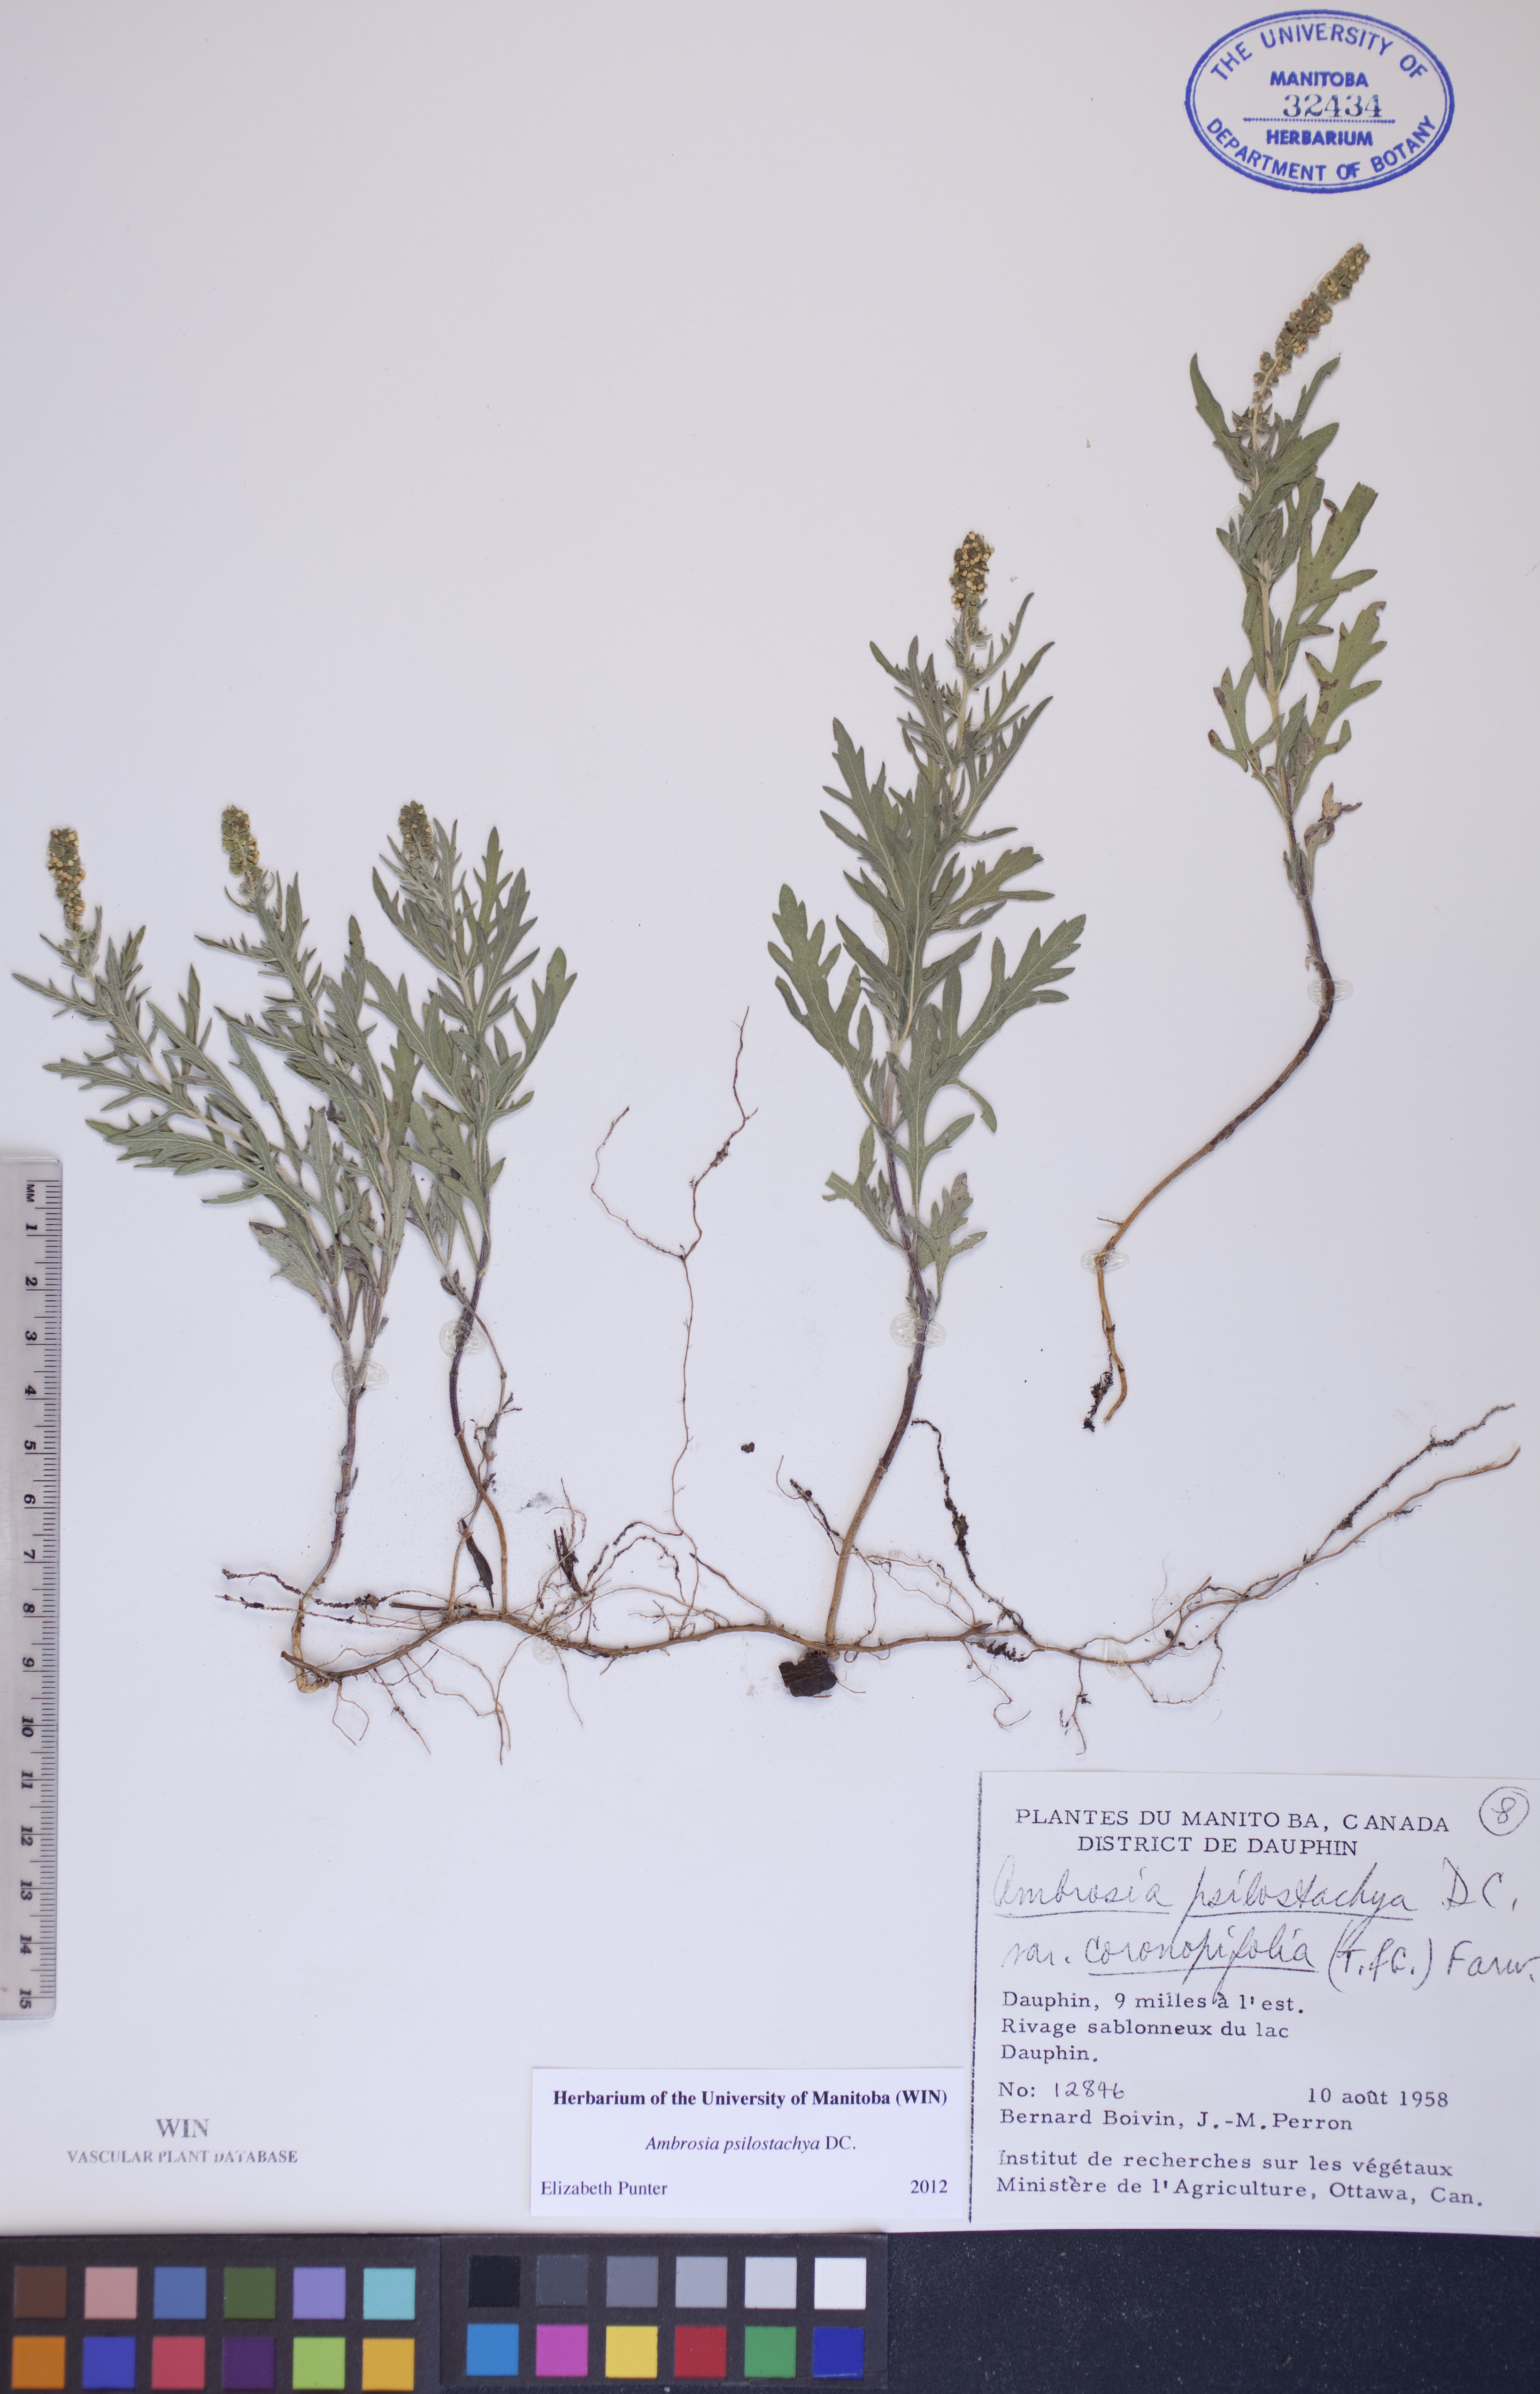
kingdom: Plantae
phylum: Tracheophyta
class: Magnoliopsida
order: Asterales
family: Asteraceae
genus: Ambrosia
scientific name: Ambrosia psilostachya
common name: Perennial ragweed
